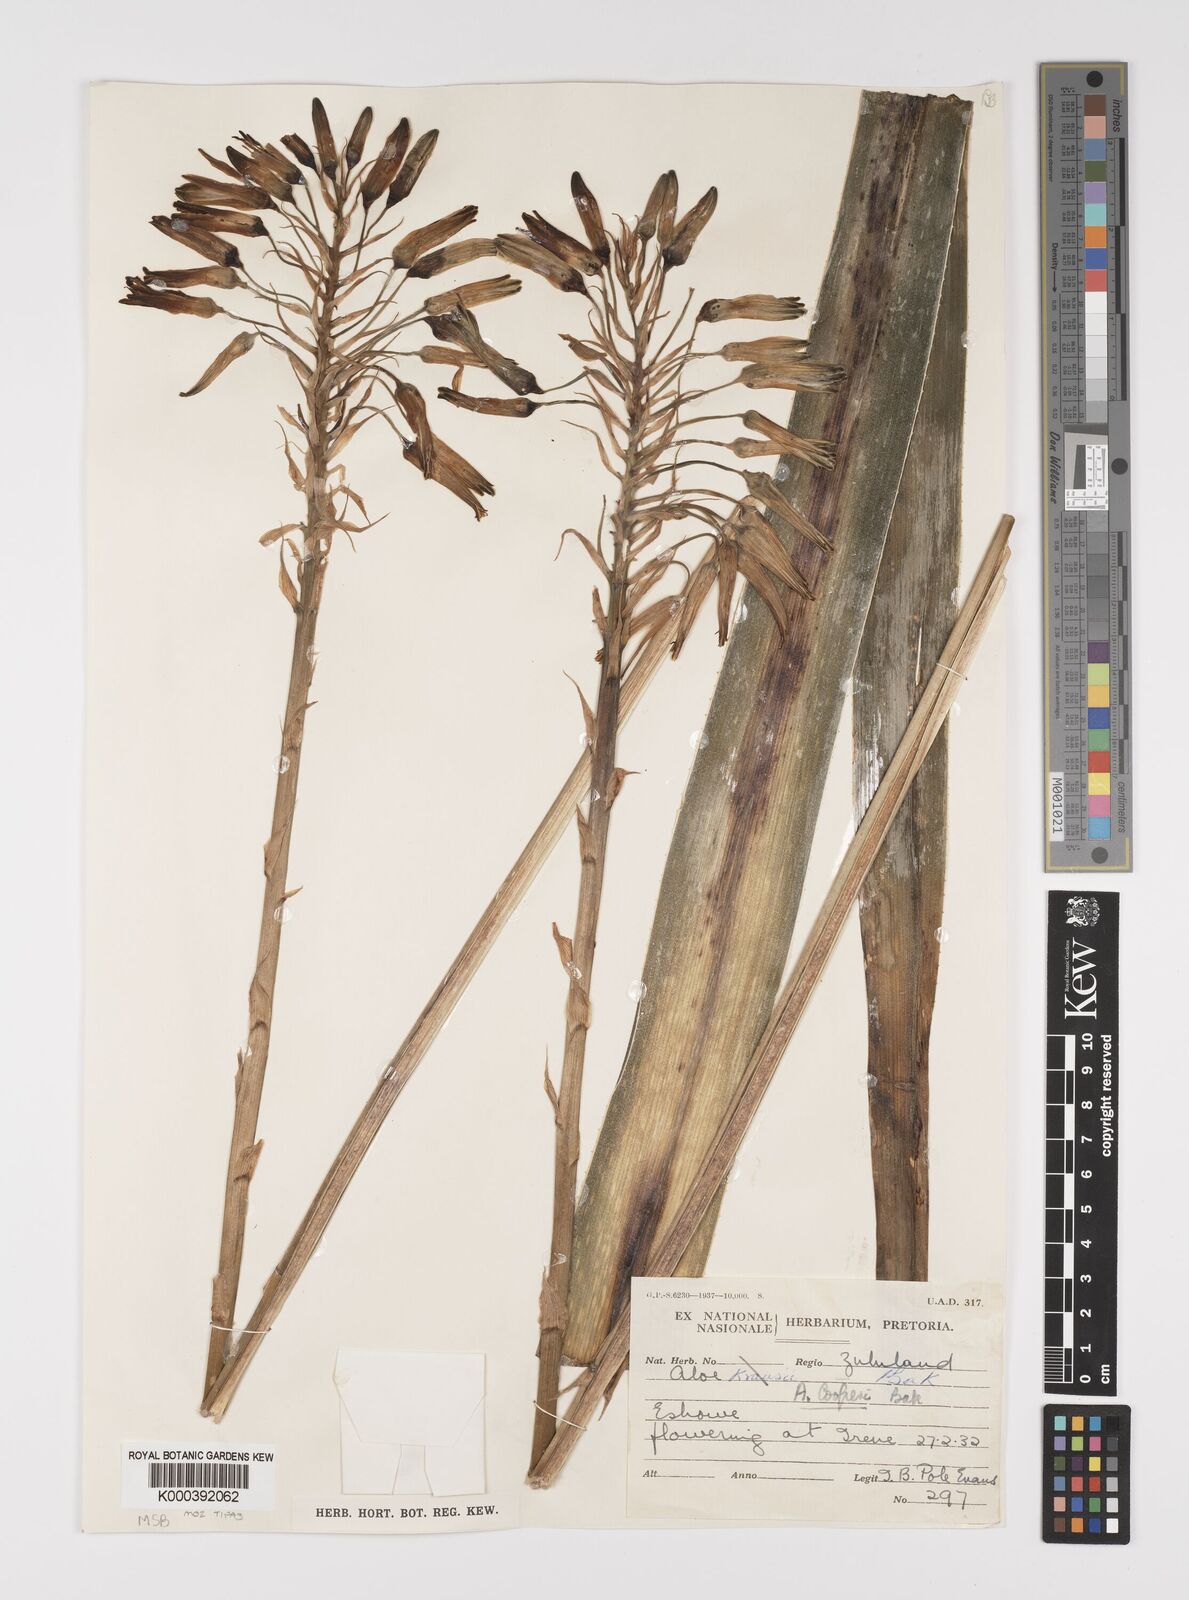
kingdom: Plantae
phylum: Tracheophyta
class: Liliopsida
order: Asparagales
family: Asphodelaceae
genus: Aloe
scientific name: Aloe cooperi
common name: Cooper's aloe
